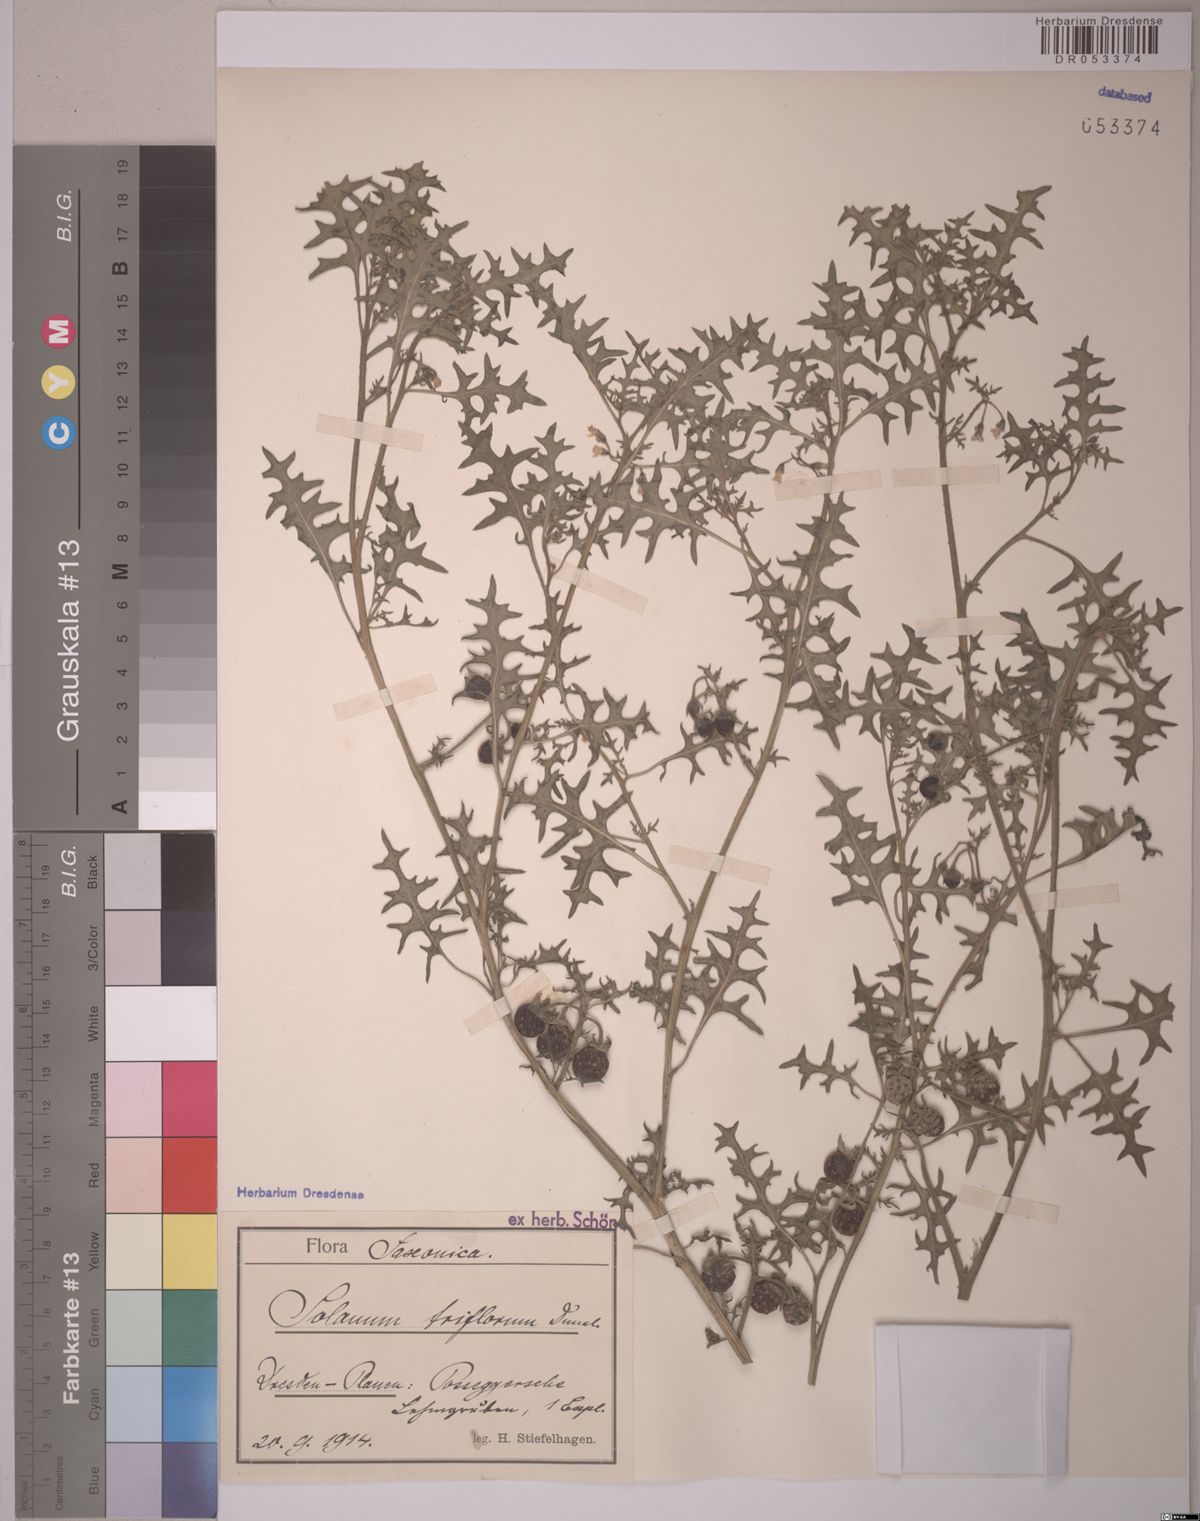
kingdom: Plantae
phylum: Tracheophyta
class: Magnoliopsida
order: Solanales
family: Solanaceae
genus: Solanum
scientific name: Solanum triflorum
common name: Small nightshade
